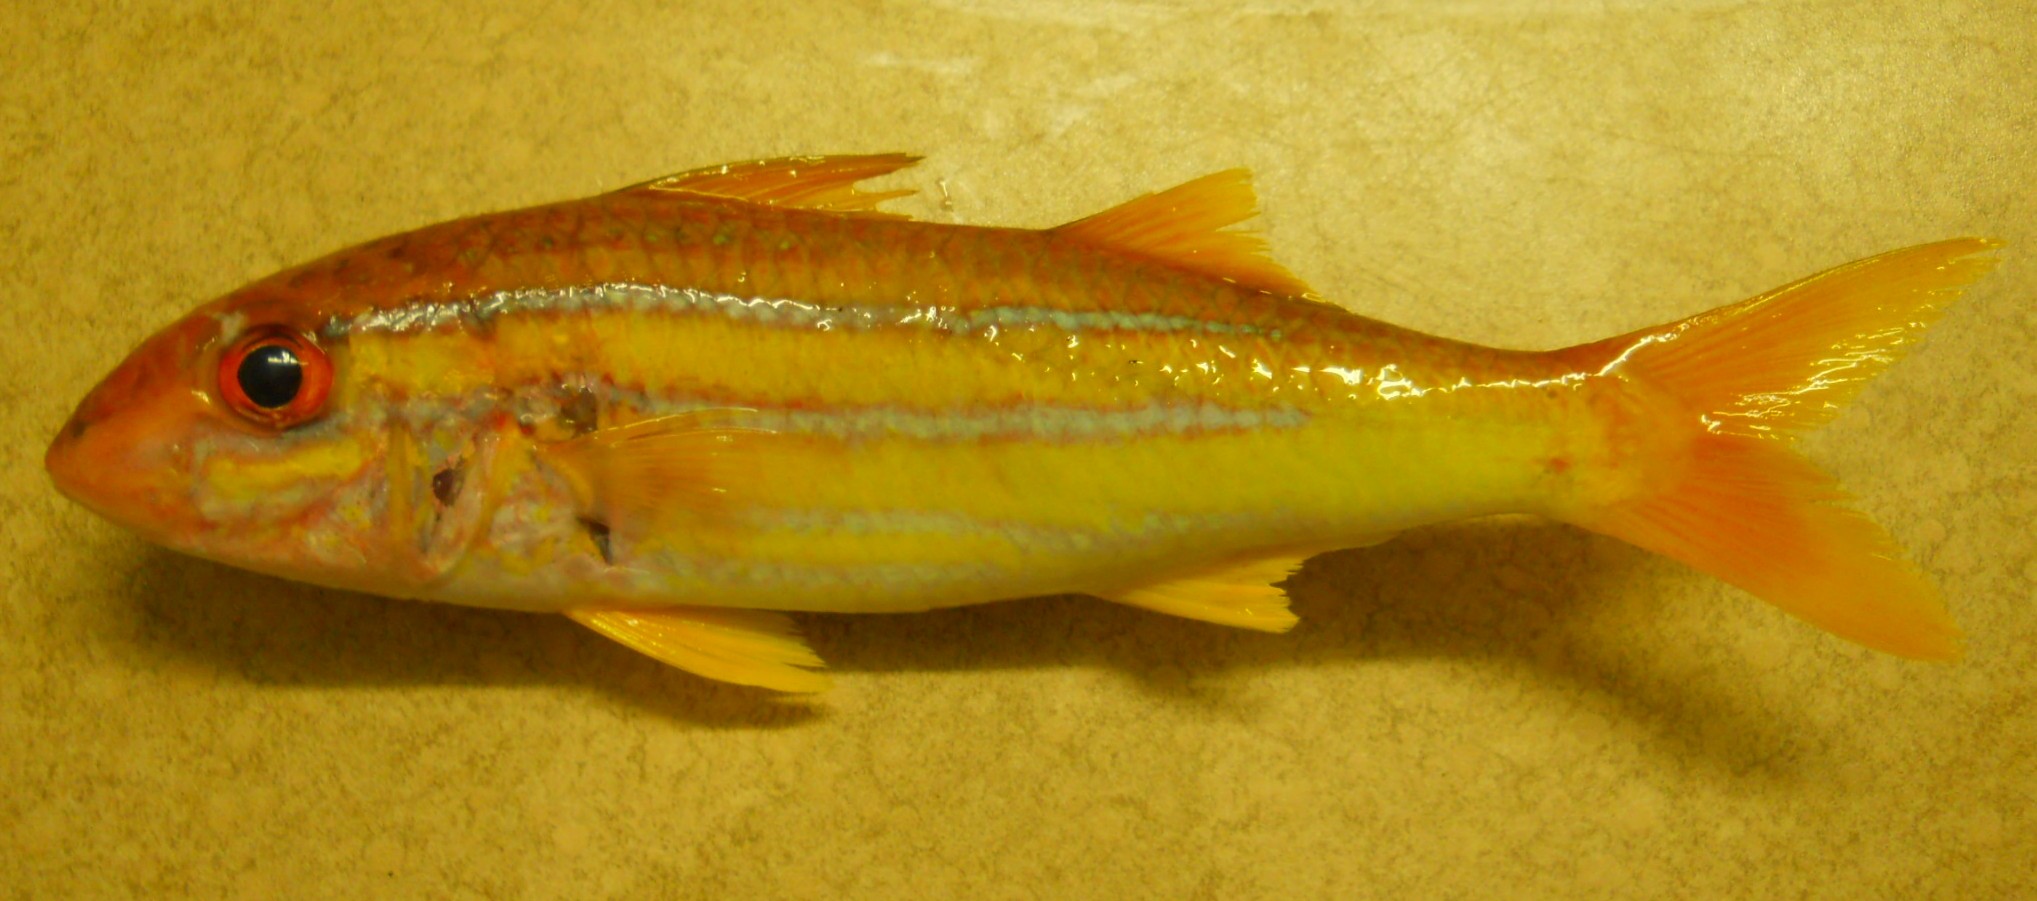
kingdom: Animalia
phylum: Chordata
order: Perciformes
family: Mullidae
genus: Mulloidichthys
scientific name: Mulloidichthys ayliffe
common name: Indian mimic goatfish
